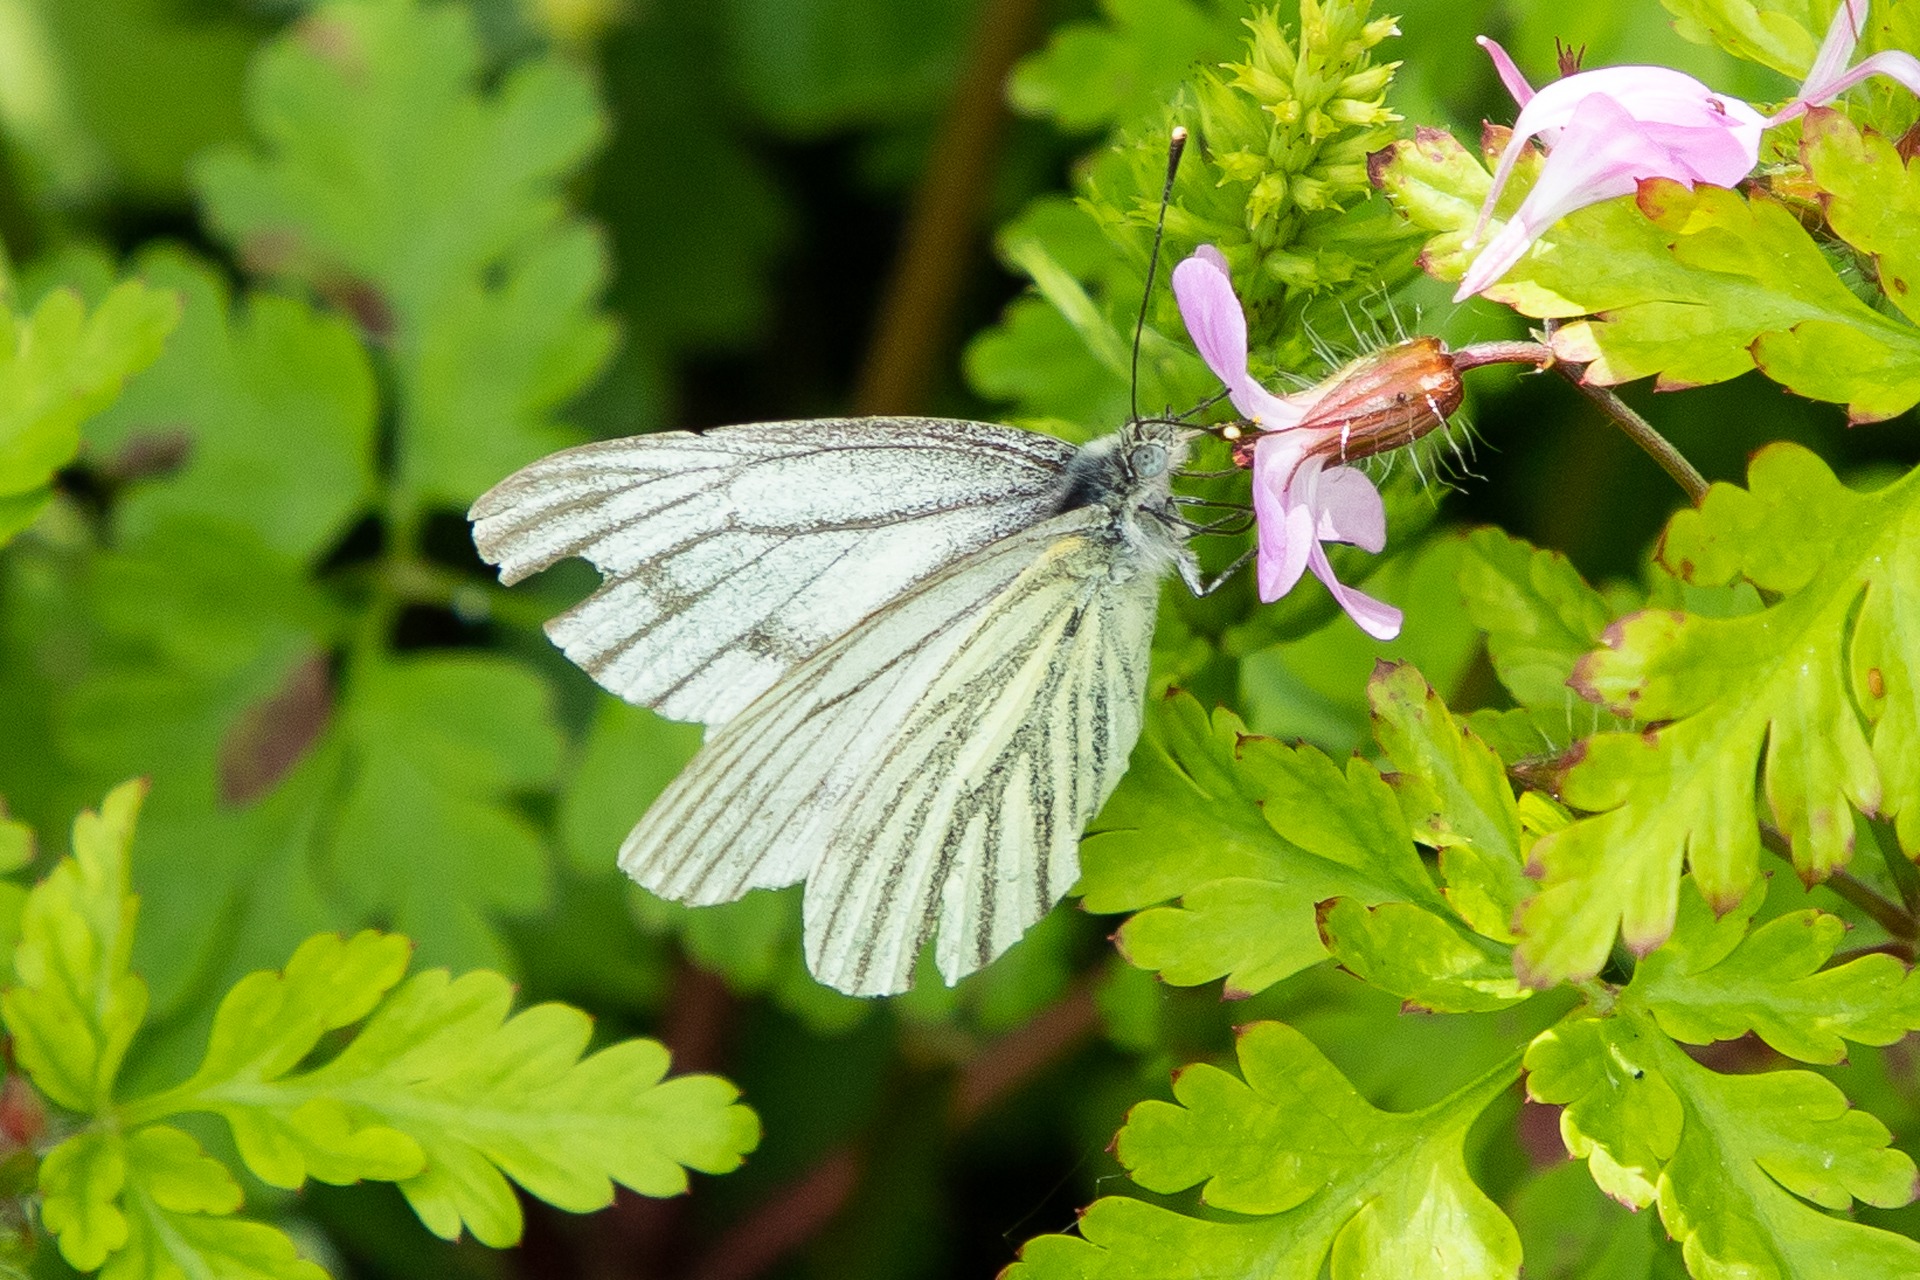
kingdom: Animalia
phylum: Arthropoda
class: Insecta
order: Lepidoptera
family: Pieridae
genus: Pieris
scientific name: Pieris napi
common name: Grønåret kålsommerfugl
